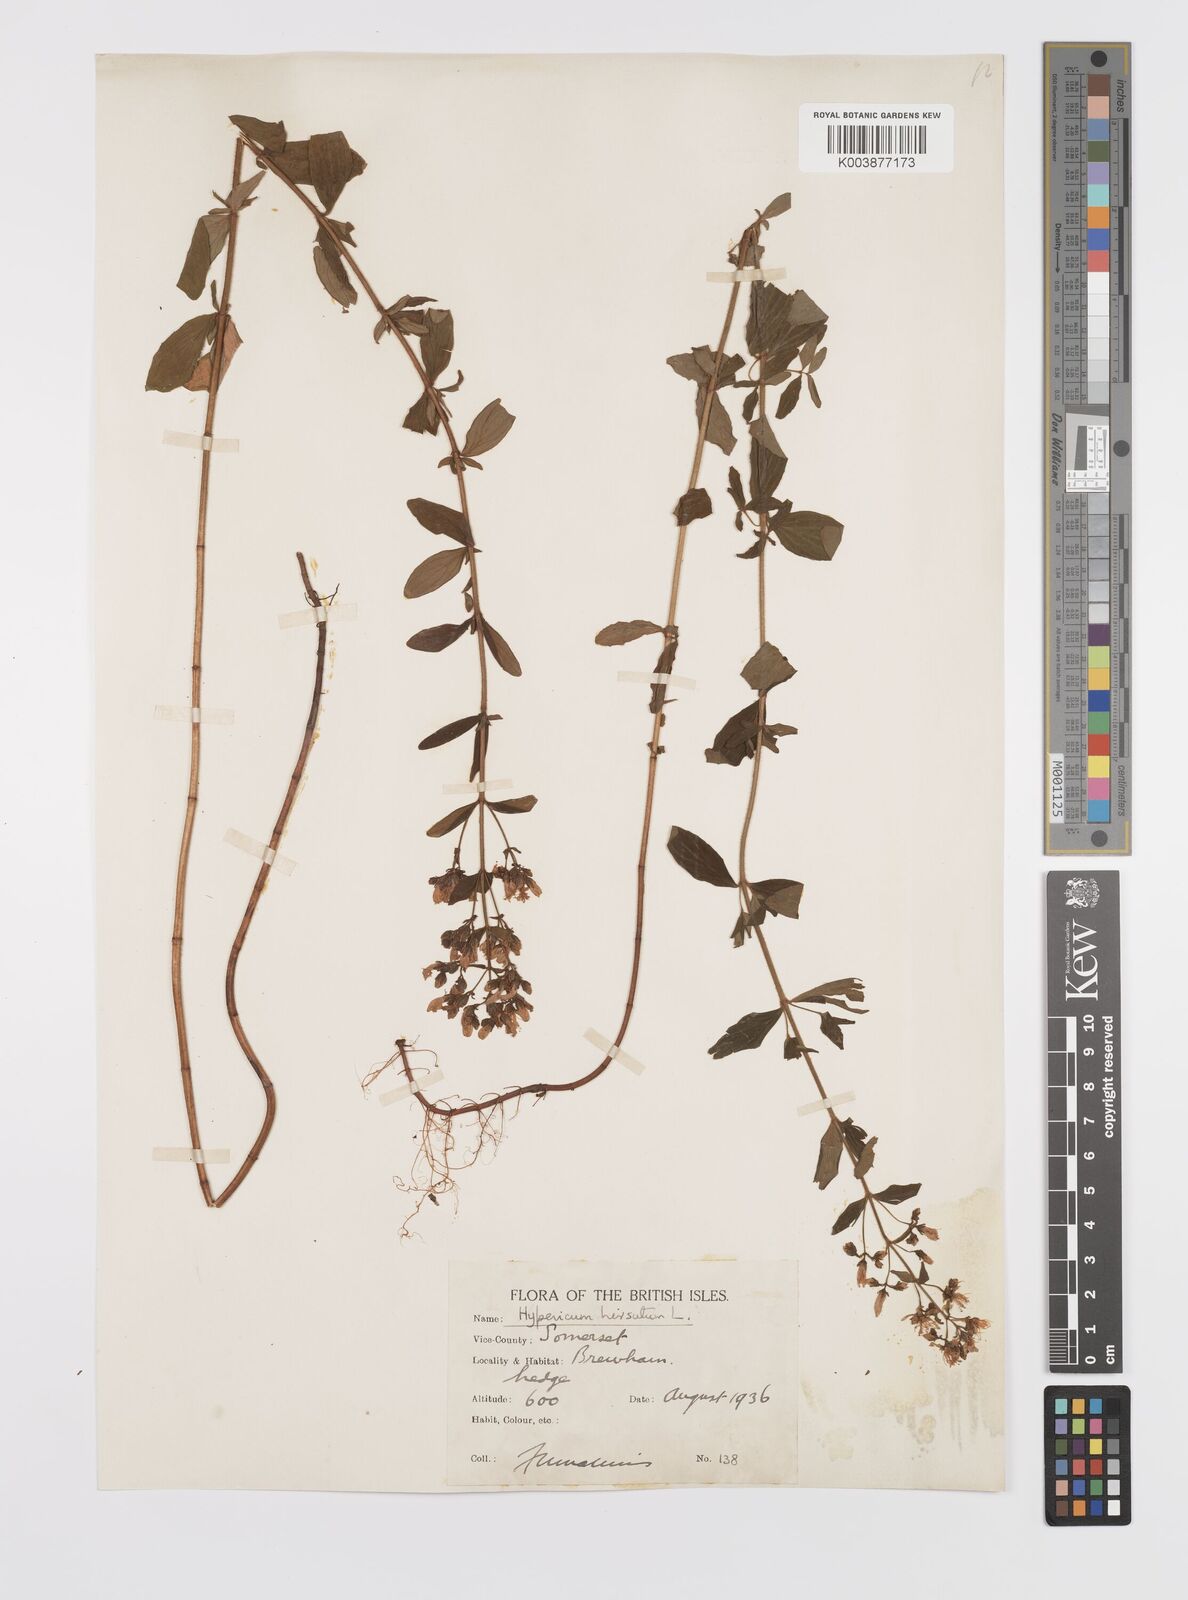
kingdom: Plantae
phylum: Tracheophyta
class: Magnoliopsida
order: Malpighiales
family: Hypericaceae
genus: Hypericum
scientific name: Hypericum hirsutum
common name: Hairy st. john's-wort
